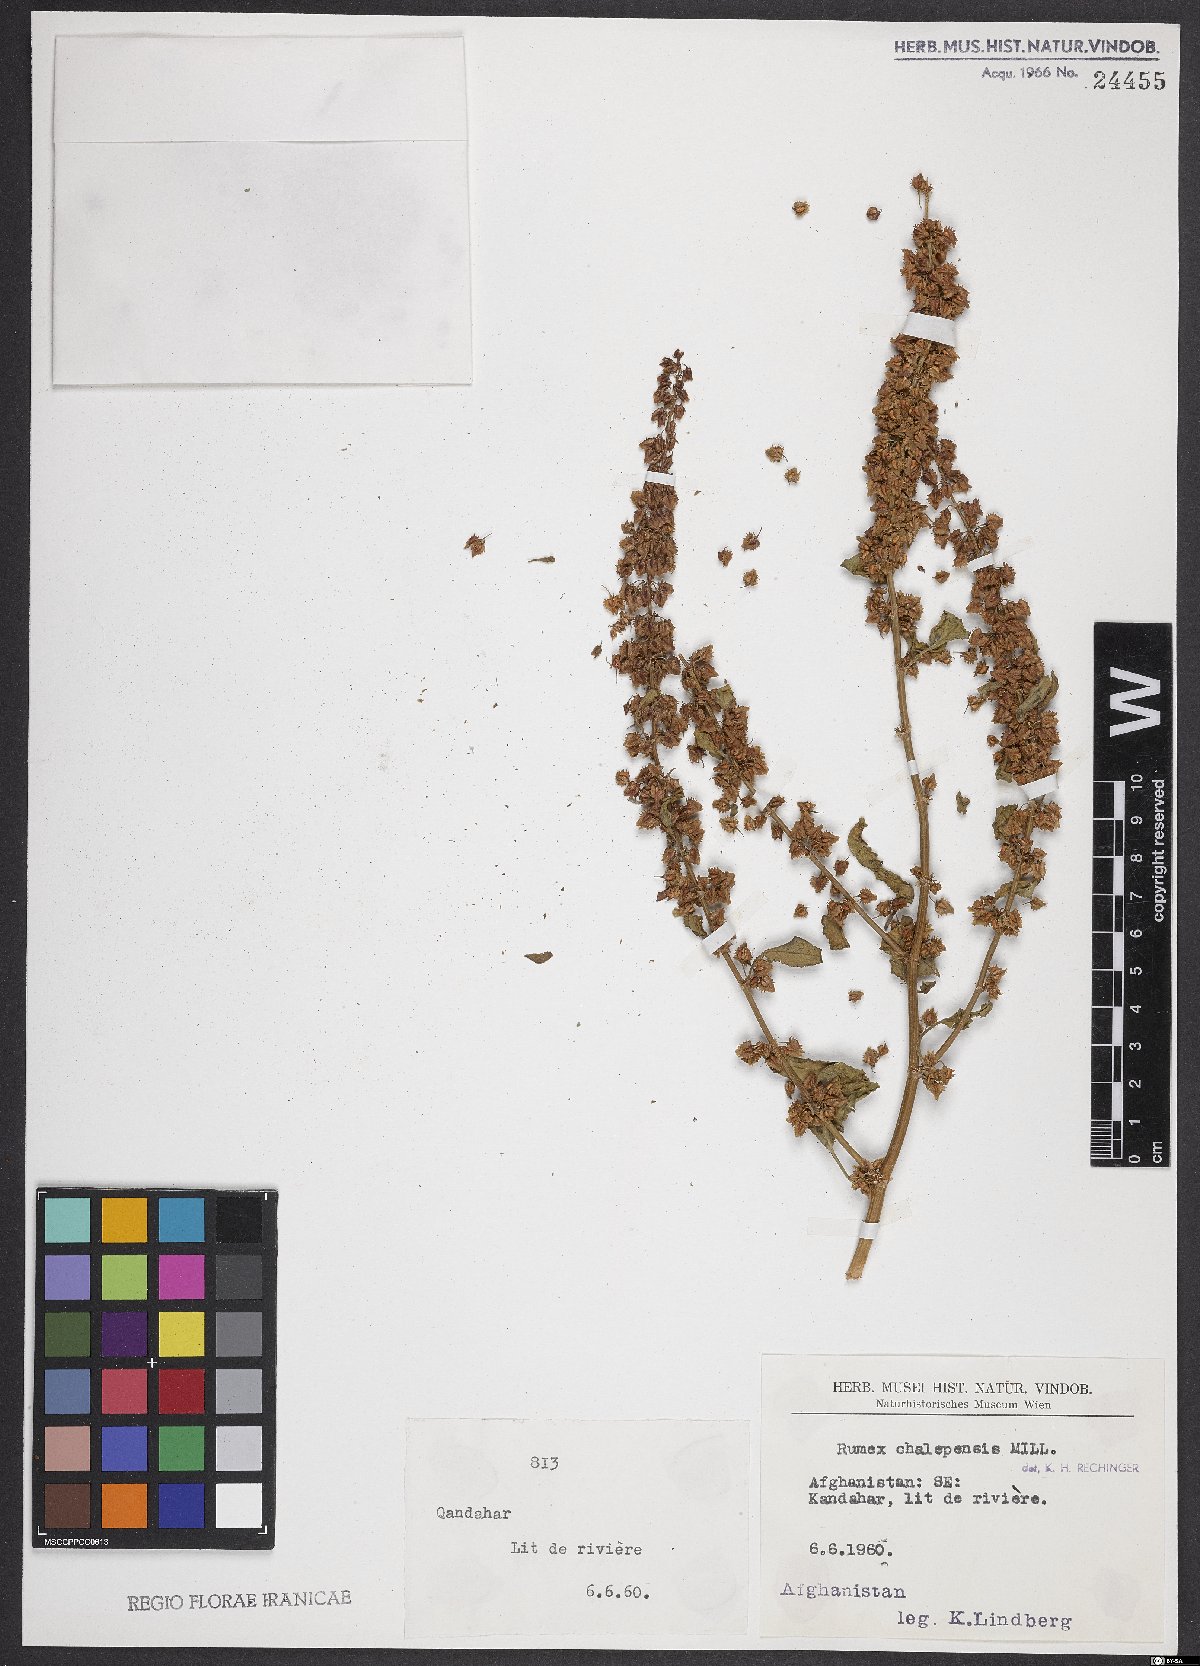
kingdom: Plantae
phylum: Tracheophyta
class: Magnoliopsida
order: Caryophyllales
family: Polygonaceae
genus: Rumex
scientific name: Rumex chalepensis
